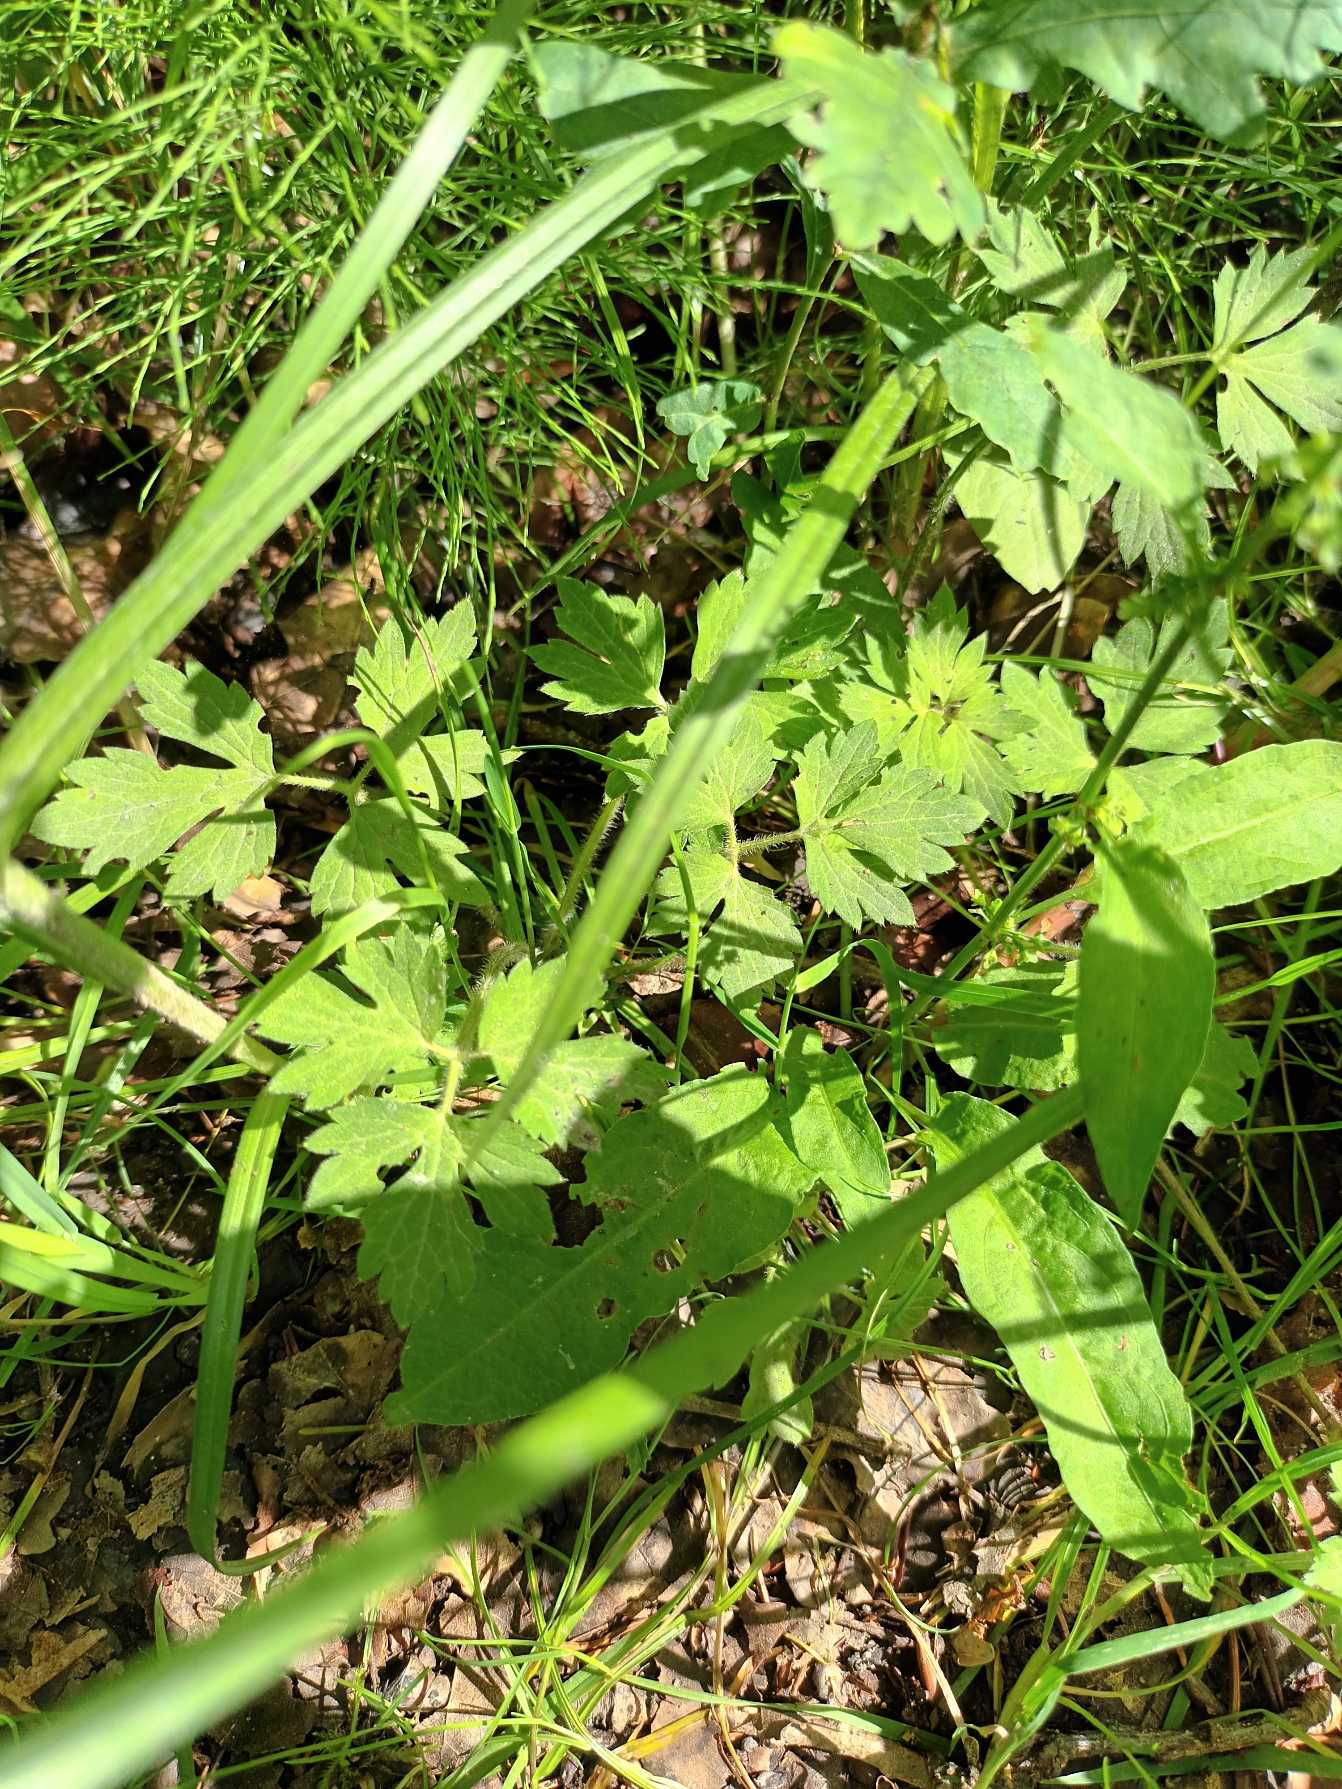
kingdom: Plantae
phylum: Tracheophyta
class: Magnoliopsida
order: Ranunculales
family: Ranunculaceae
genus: Ranunculus
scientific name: Ranunculus repens
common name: Lav ranunkel
